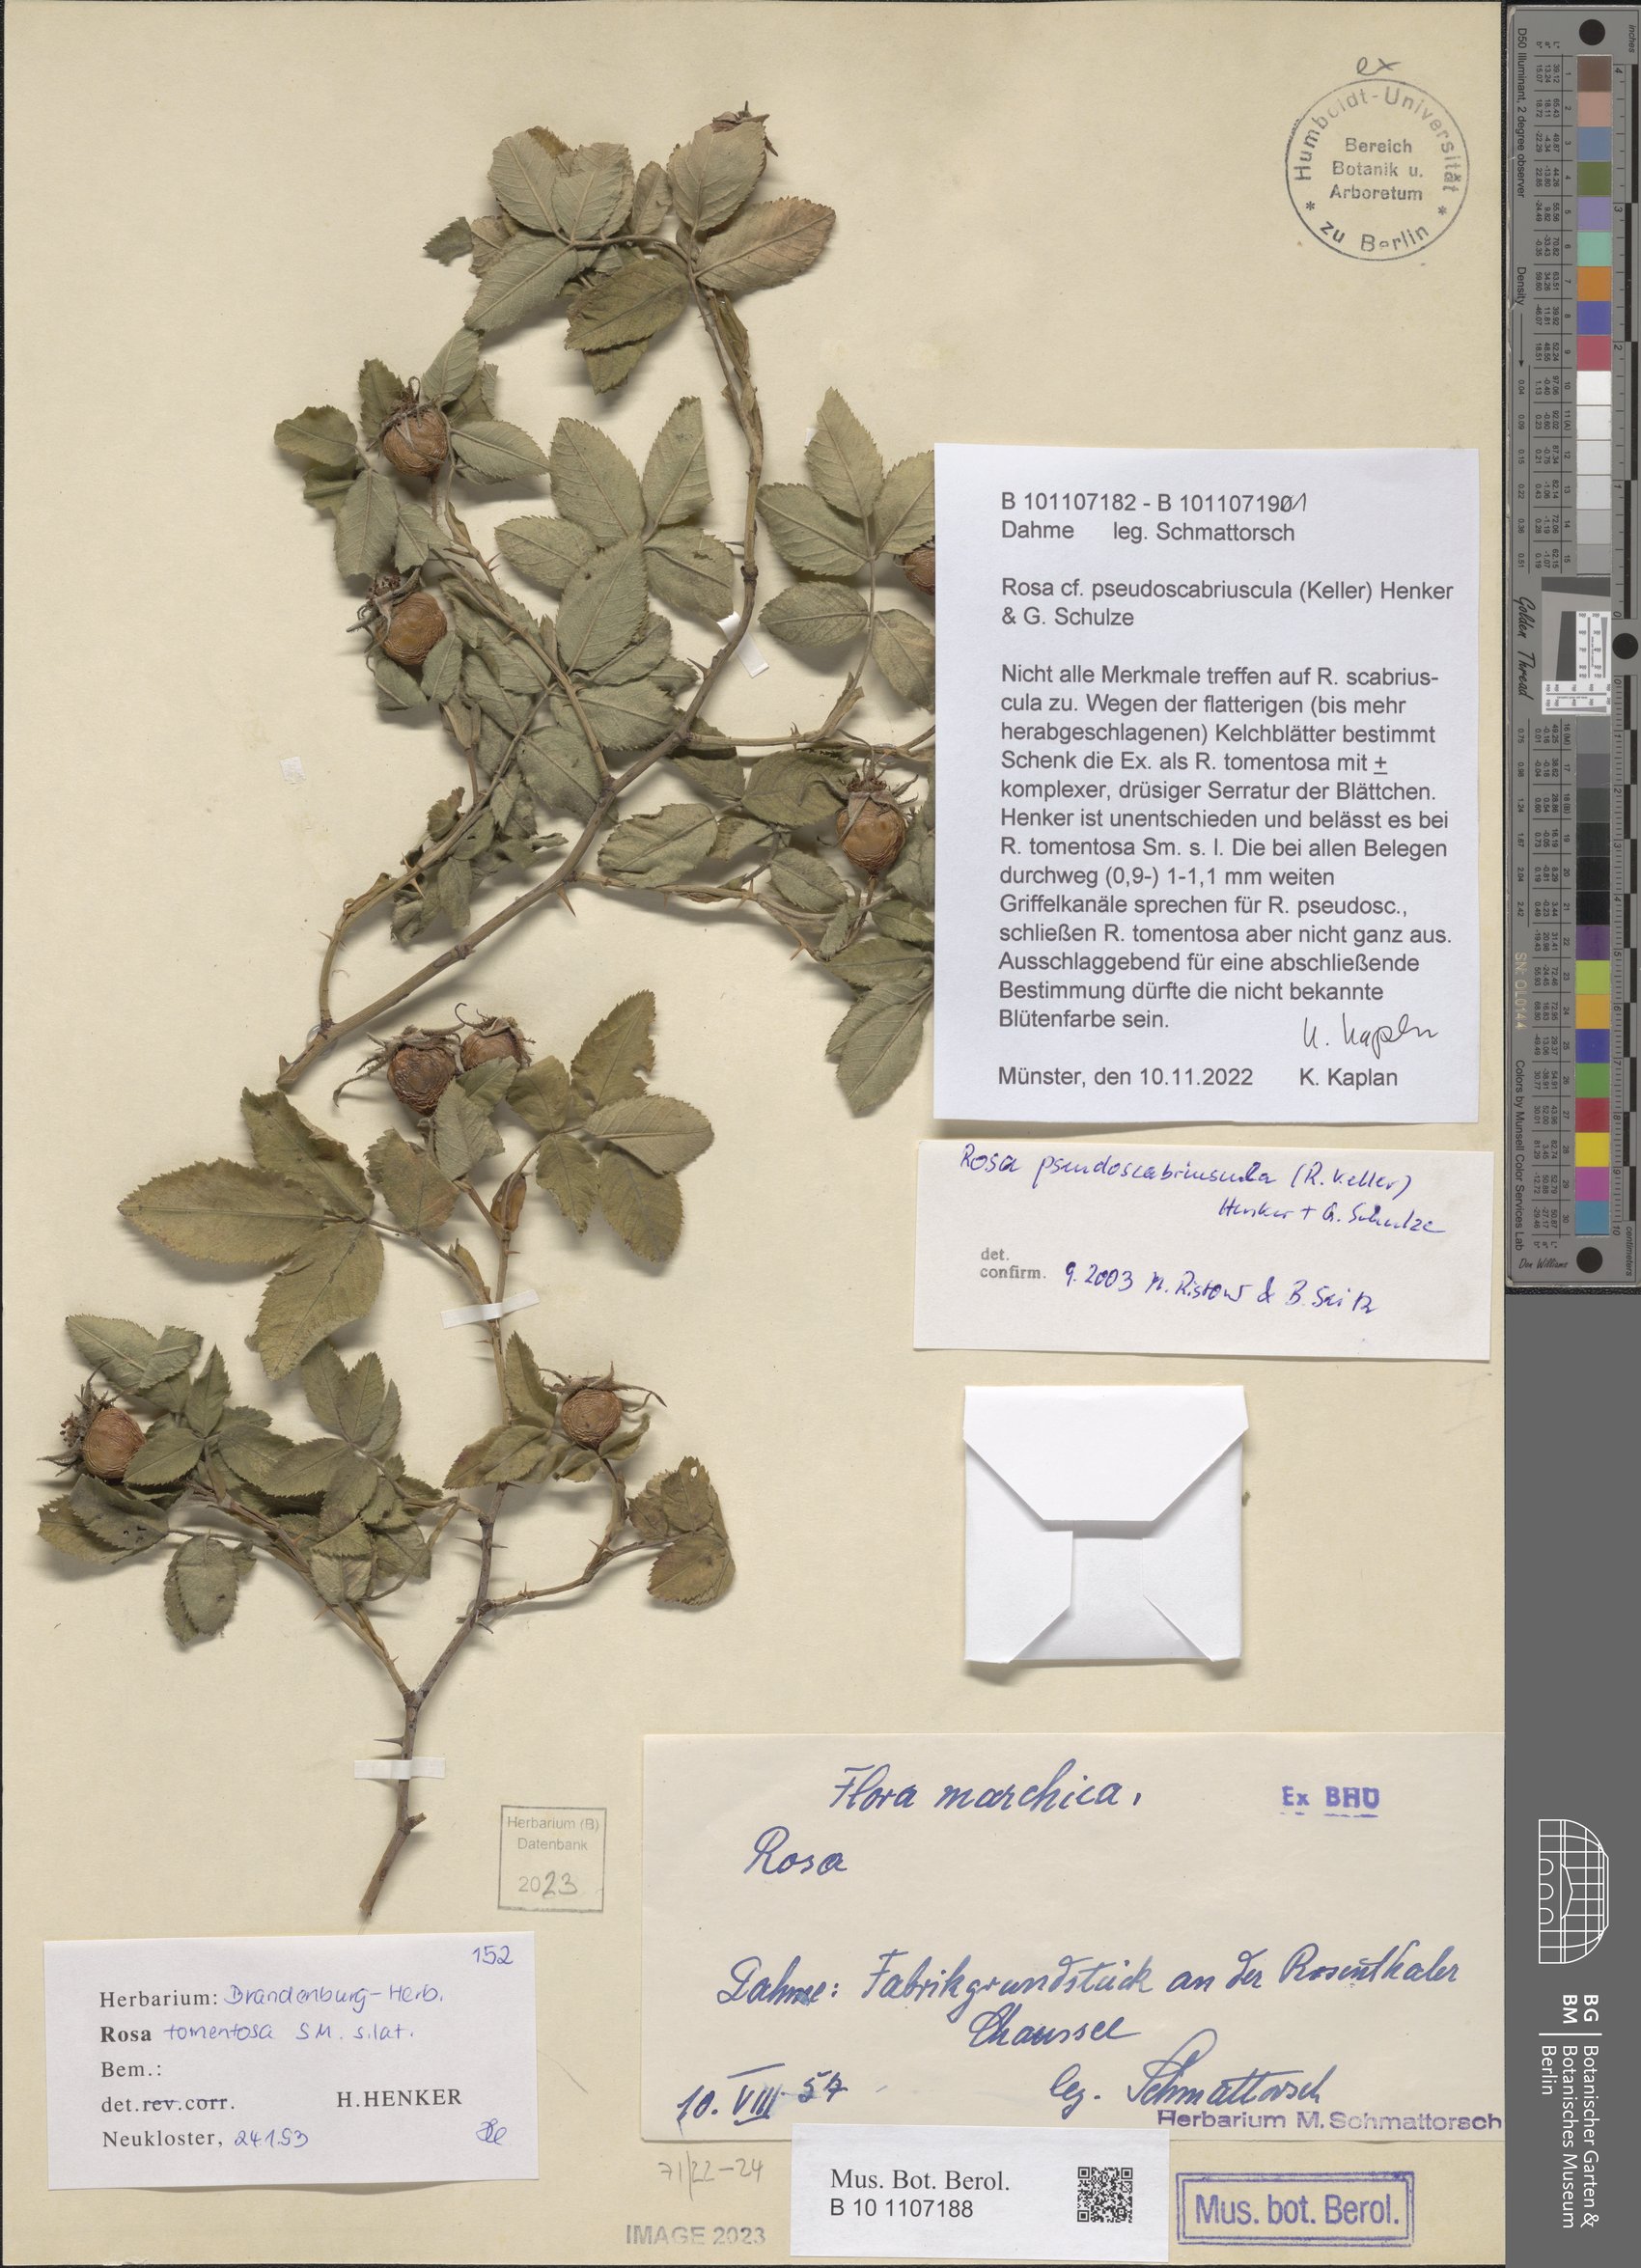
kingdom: Plantae
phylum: Tracheophyta
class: Magnoliopsida
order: Rosales
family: Rosaceae
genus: Rosa
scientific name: Rosa pseudoscabriuscula
